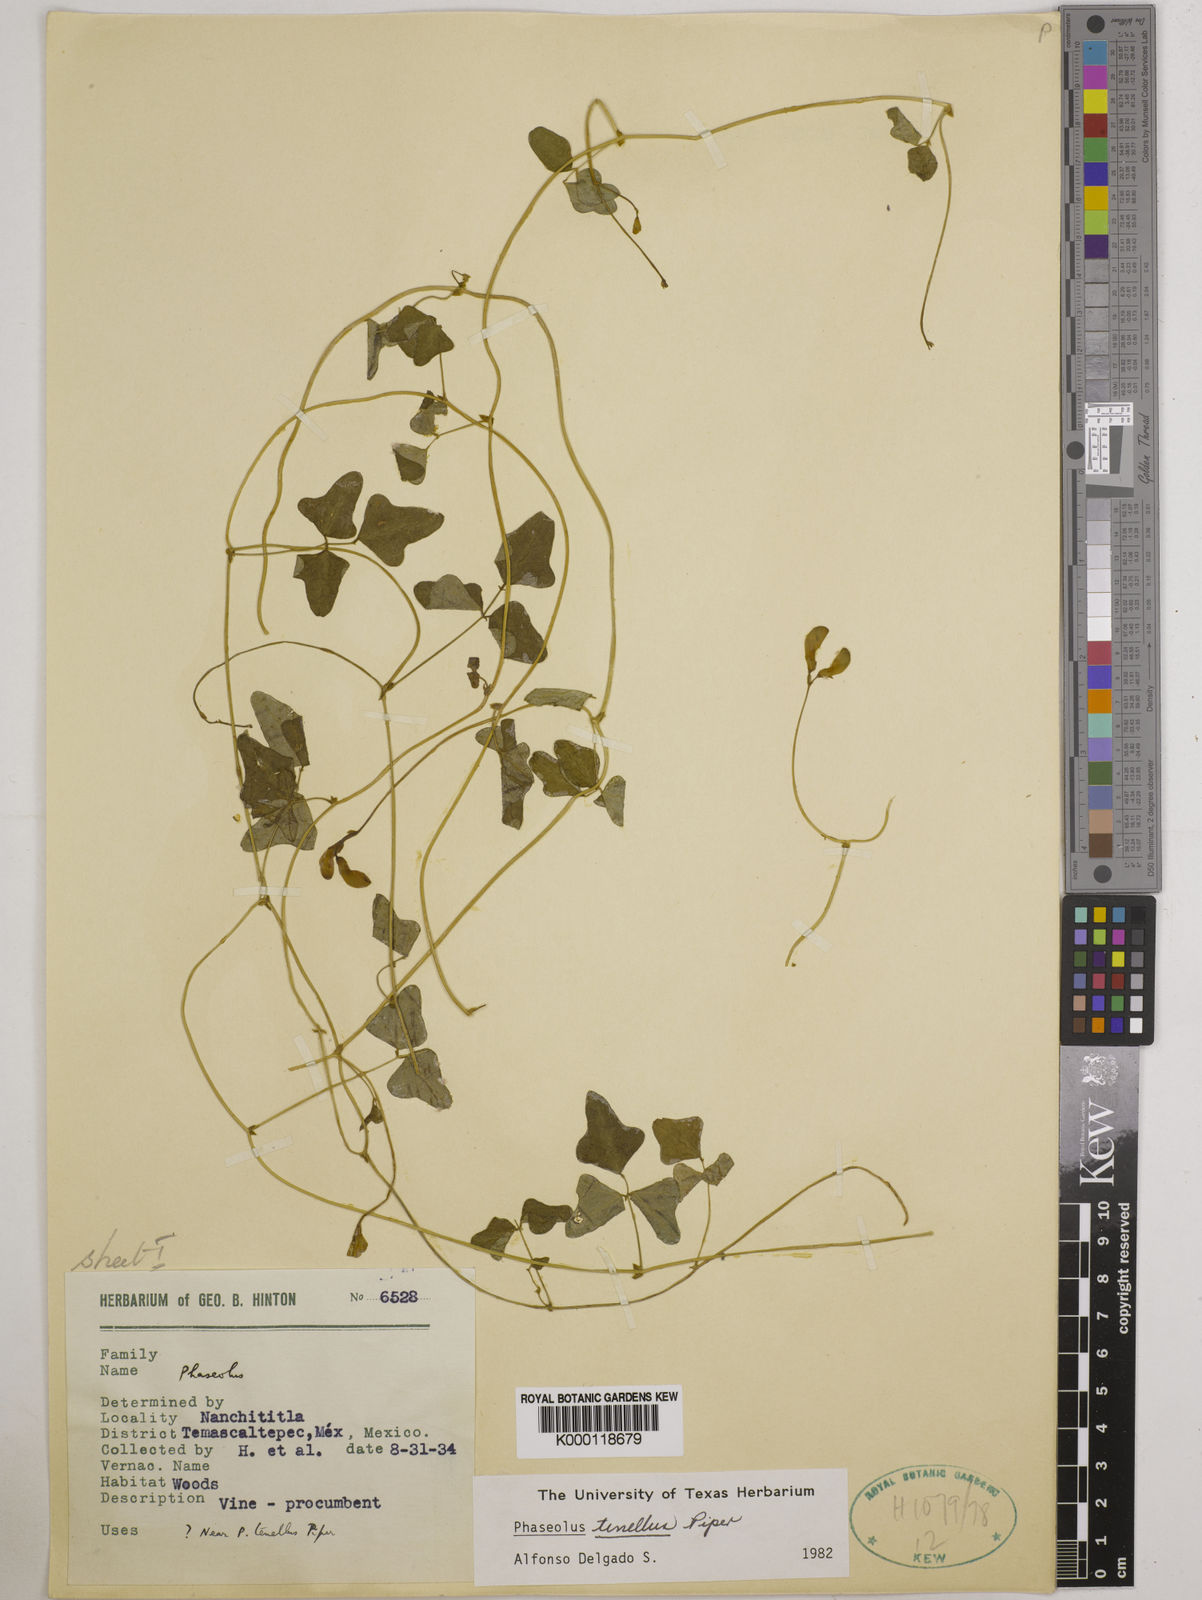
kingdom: Plantae
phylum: Tracheophyta
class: Magnoliopsida
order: Fabales
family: Fabaceae
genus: Phaseolus
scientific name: Phaseolus tenellus
